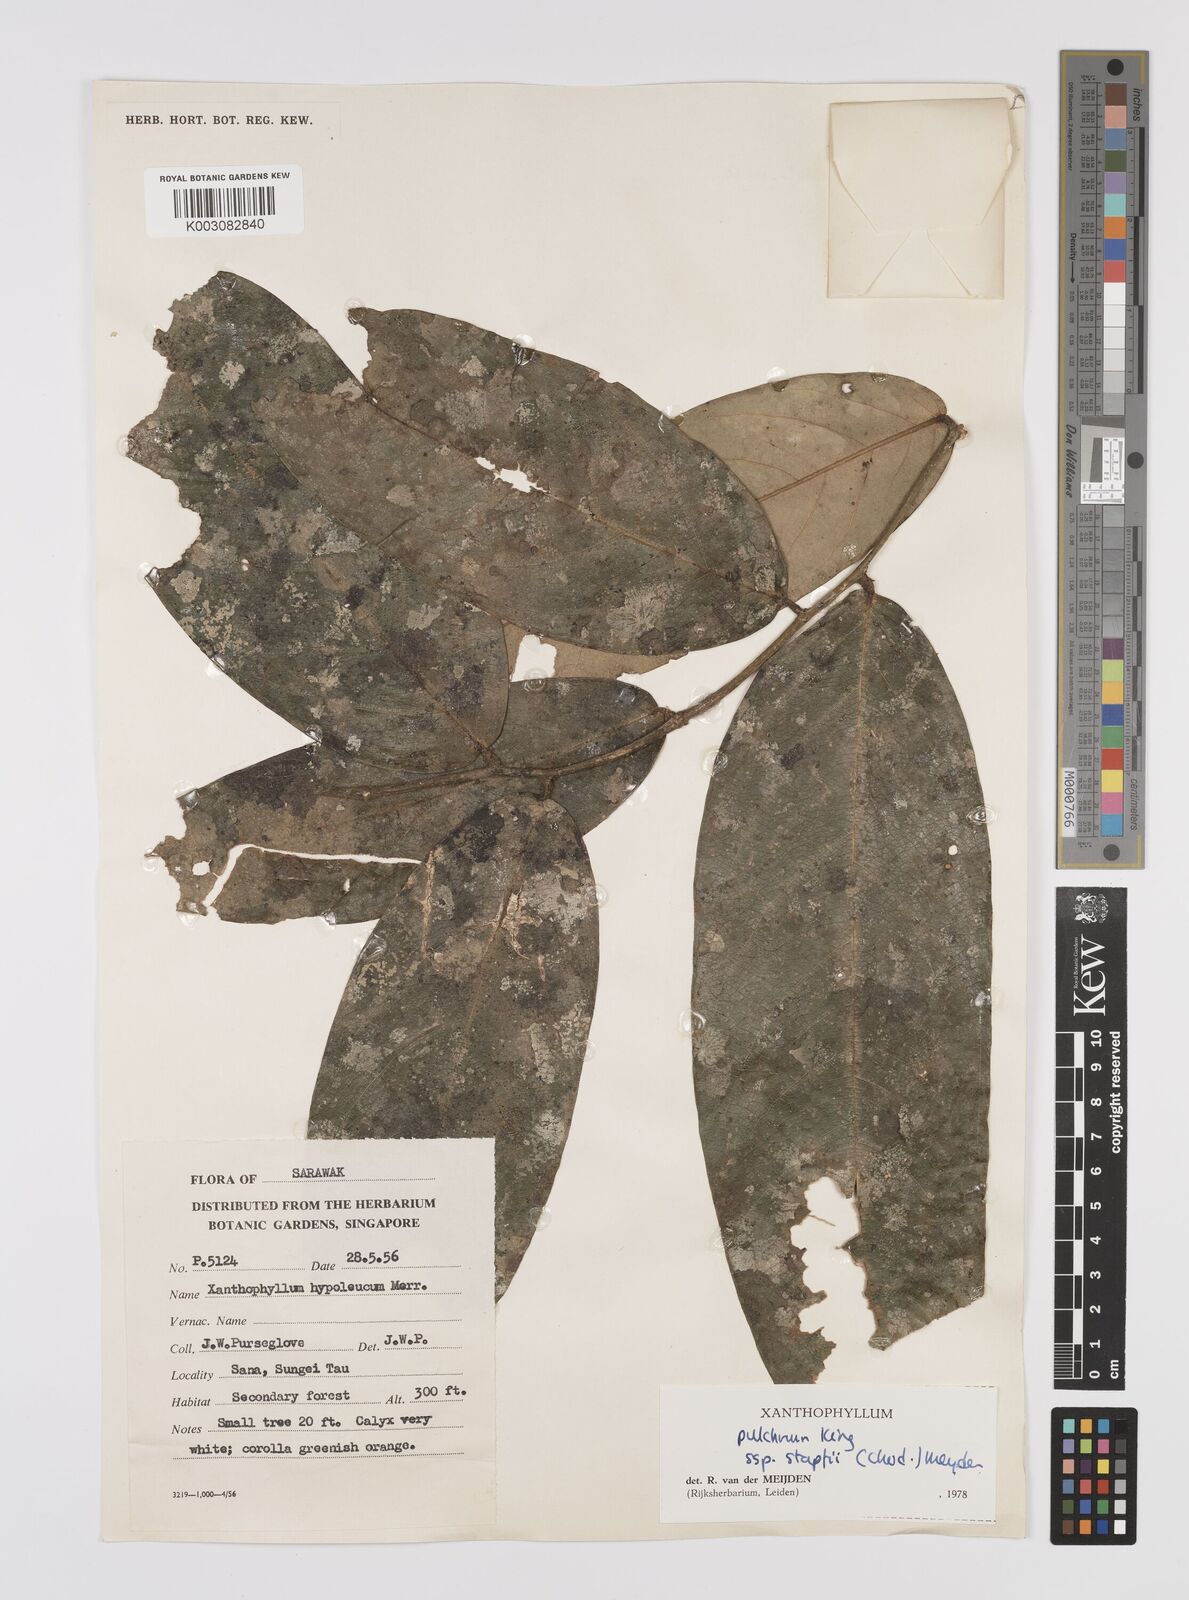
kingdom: Plantae
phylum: Tracheophyta
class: Magnoliopsida
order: Fabales
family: Polygalaceae
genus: Xanthophyllum
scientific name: Xanthophyllum pulchrum
